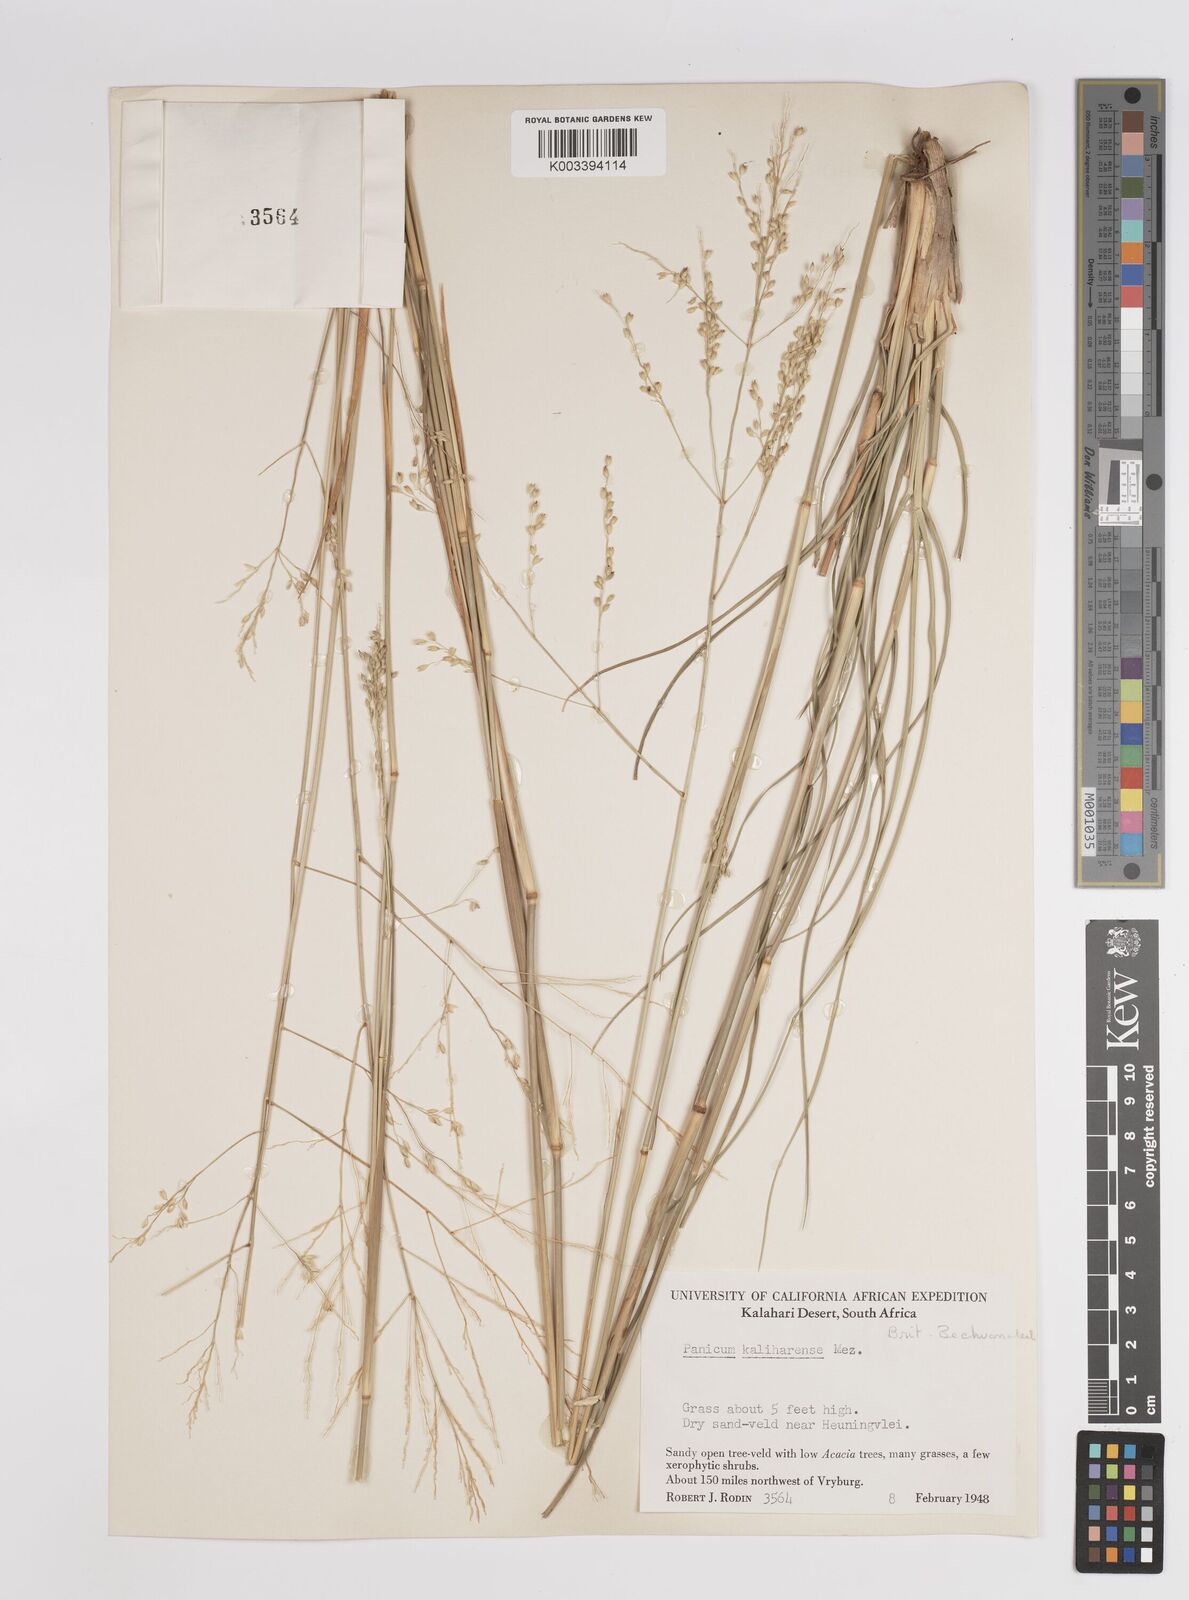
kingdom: Plantae
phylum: Tracheophyta
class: Liliopsida
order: Poales
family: Poaceae
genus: Panicum
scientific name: Panicum kalaharense
